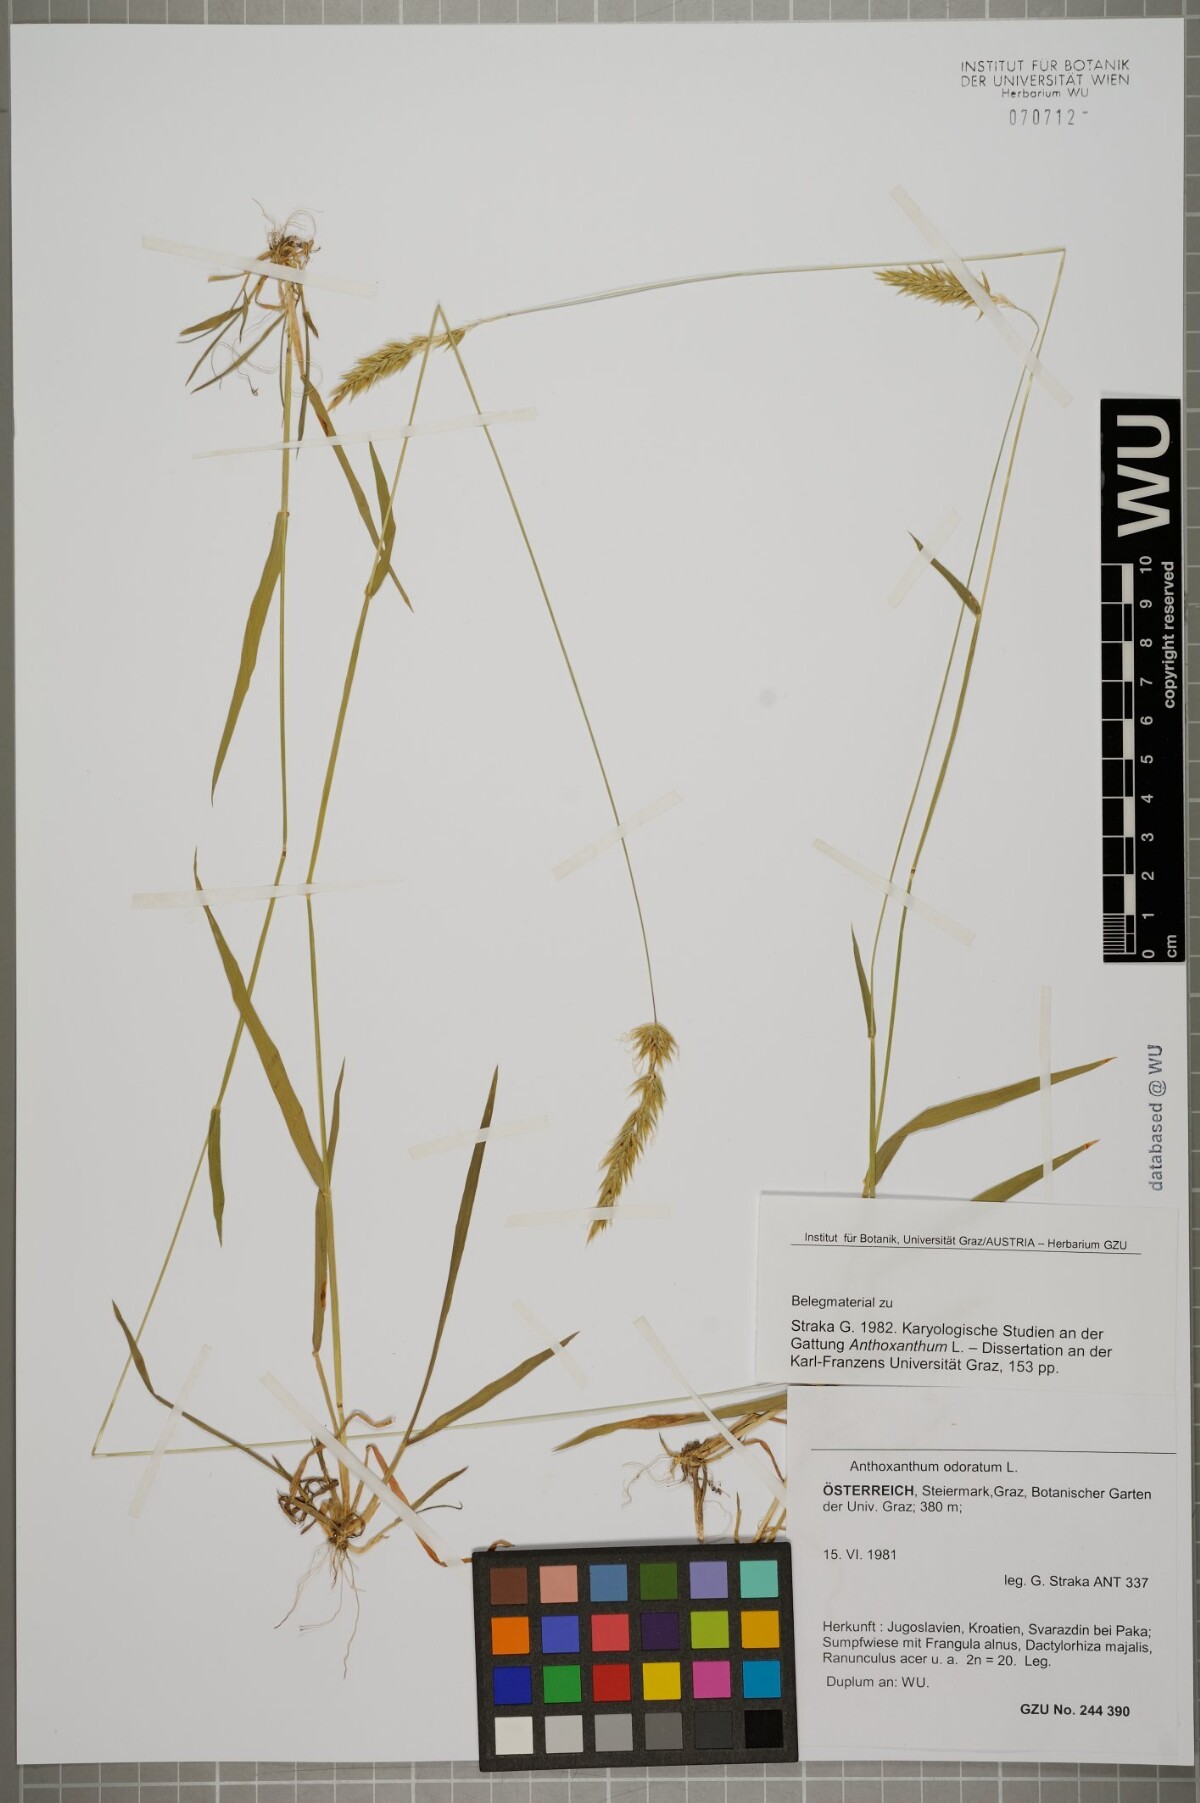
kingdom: Plantae
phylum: Tracheophyta
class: Liliopsida
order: Poales
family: Poaceae
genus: Anthoxanthum
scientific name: Anthoxanthum odoratum
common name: Sweet vernalgrass
